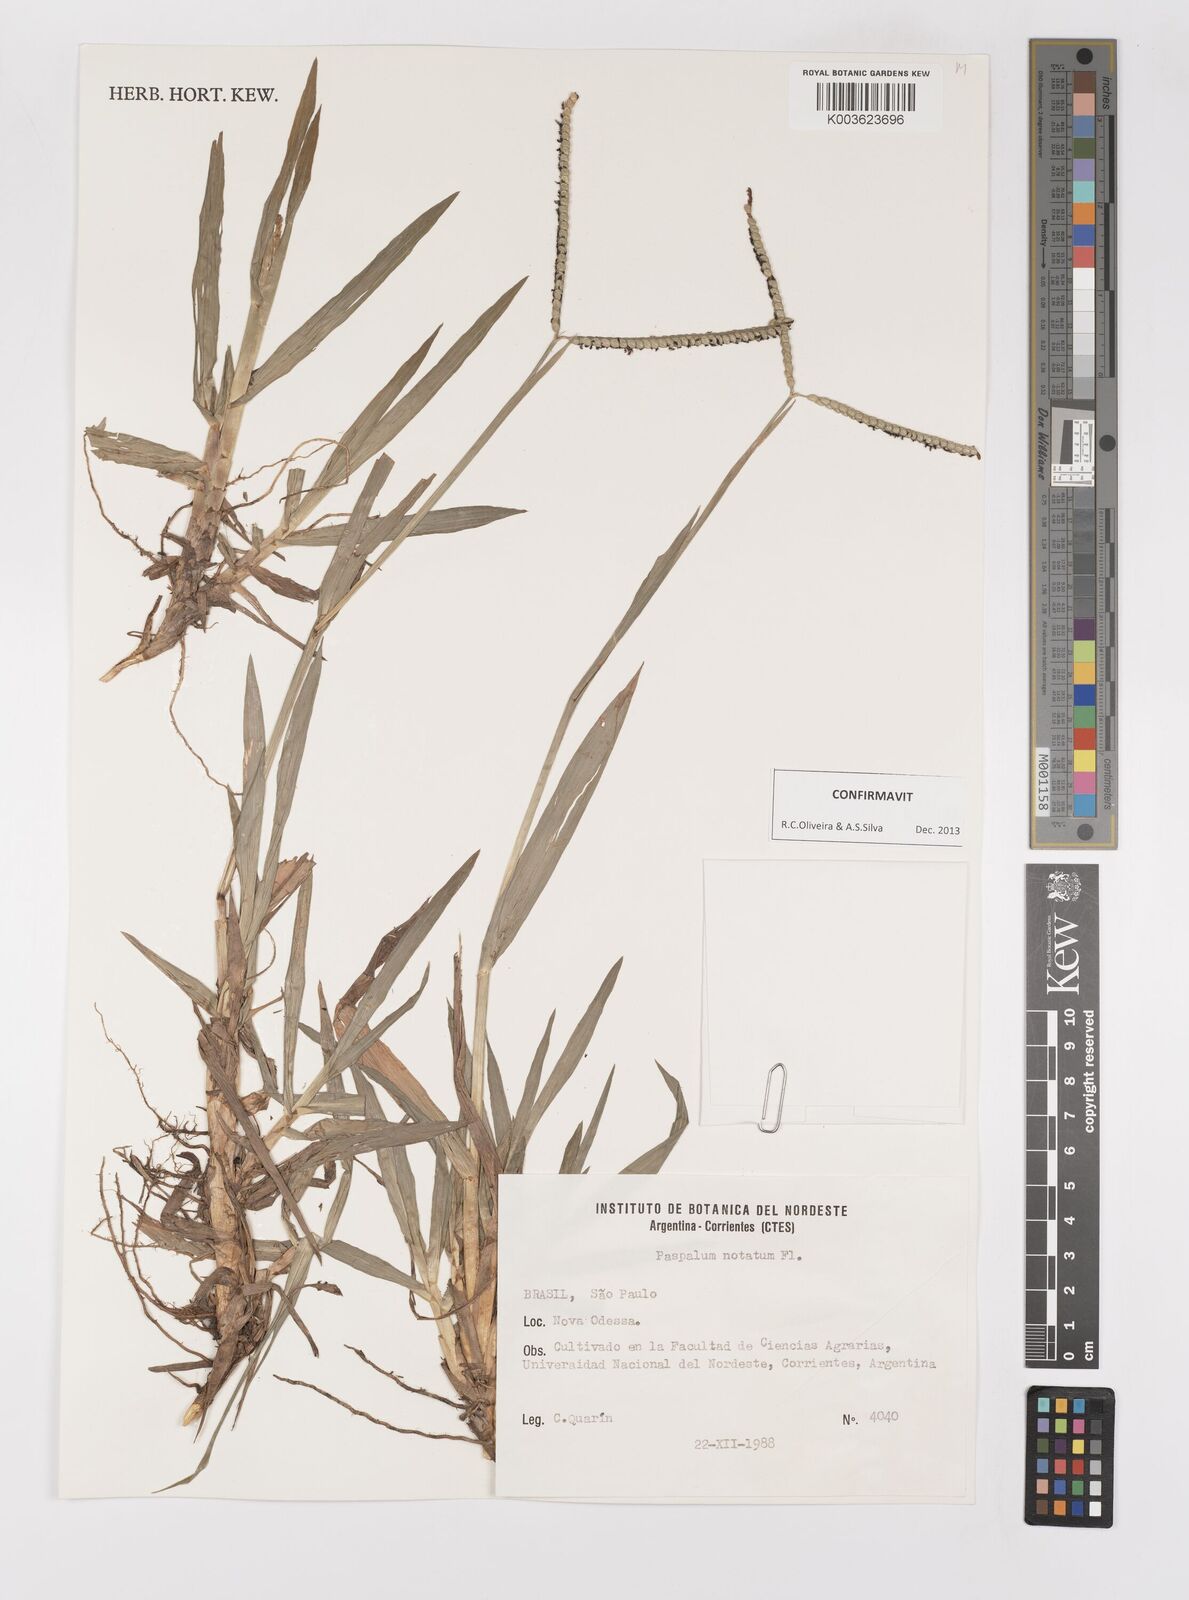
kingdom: Plantae
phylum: Tracheophyta
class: Liliopsida
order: Poales
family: Poaceae
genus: Paspalum
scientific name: Paspalum notatum
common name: Bahiagrass
